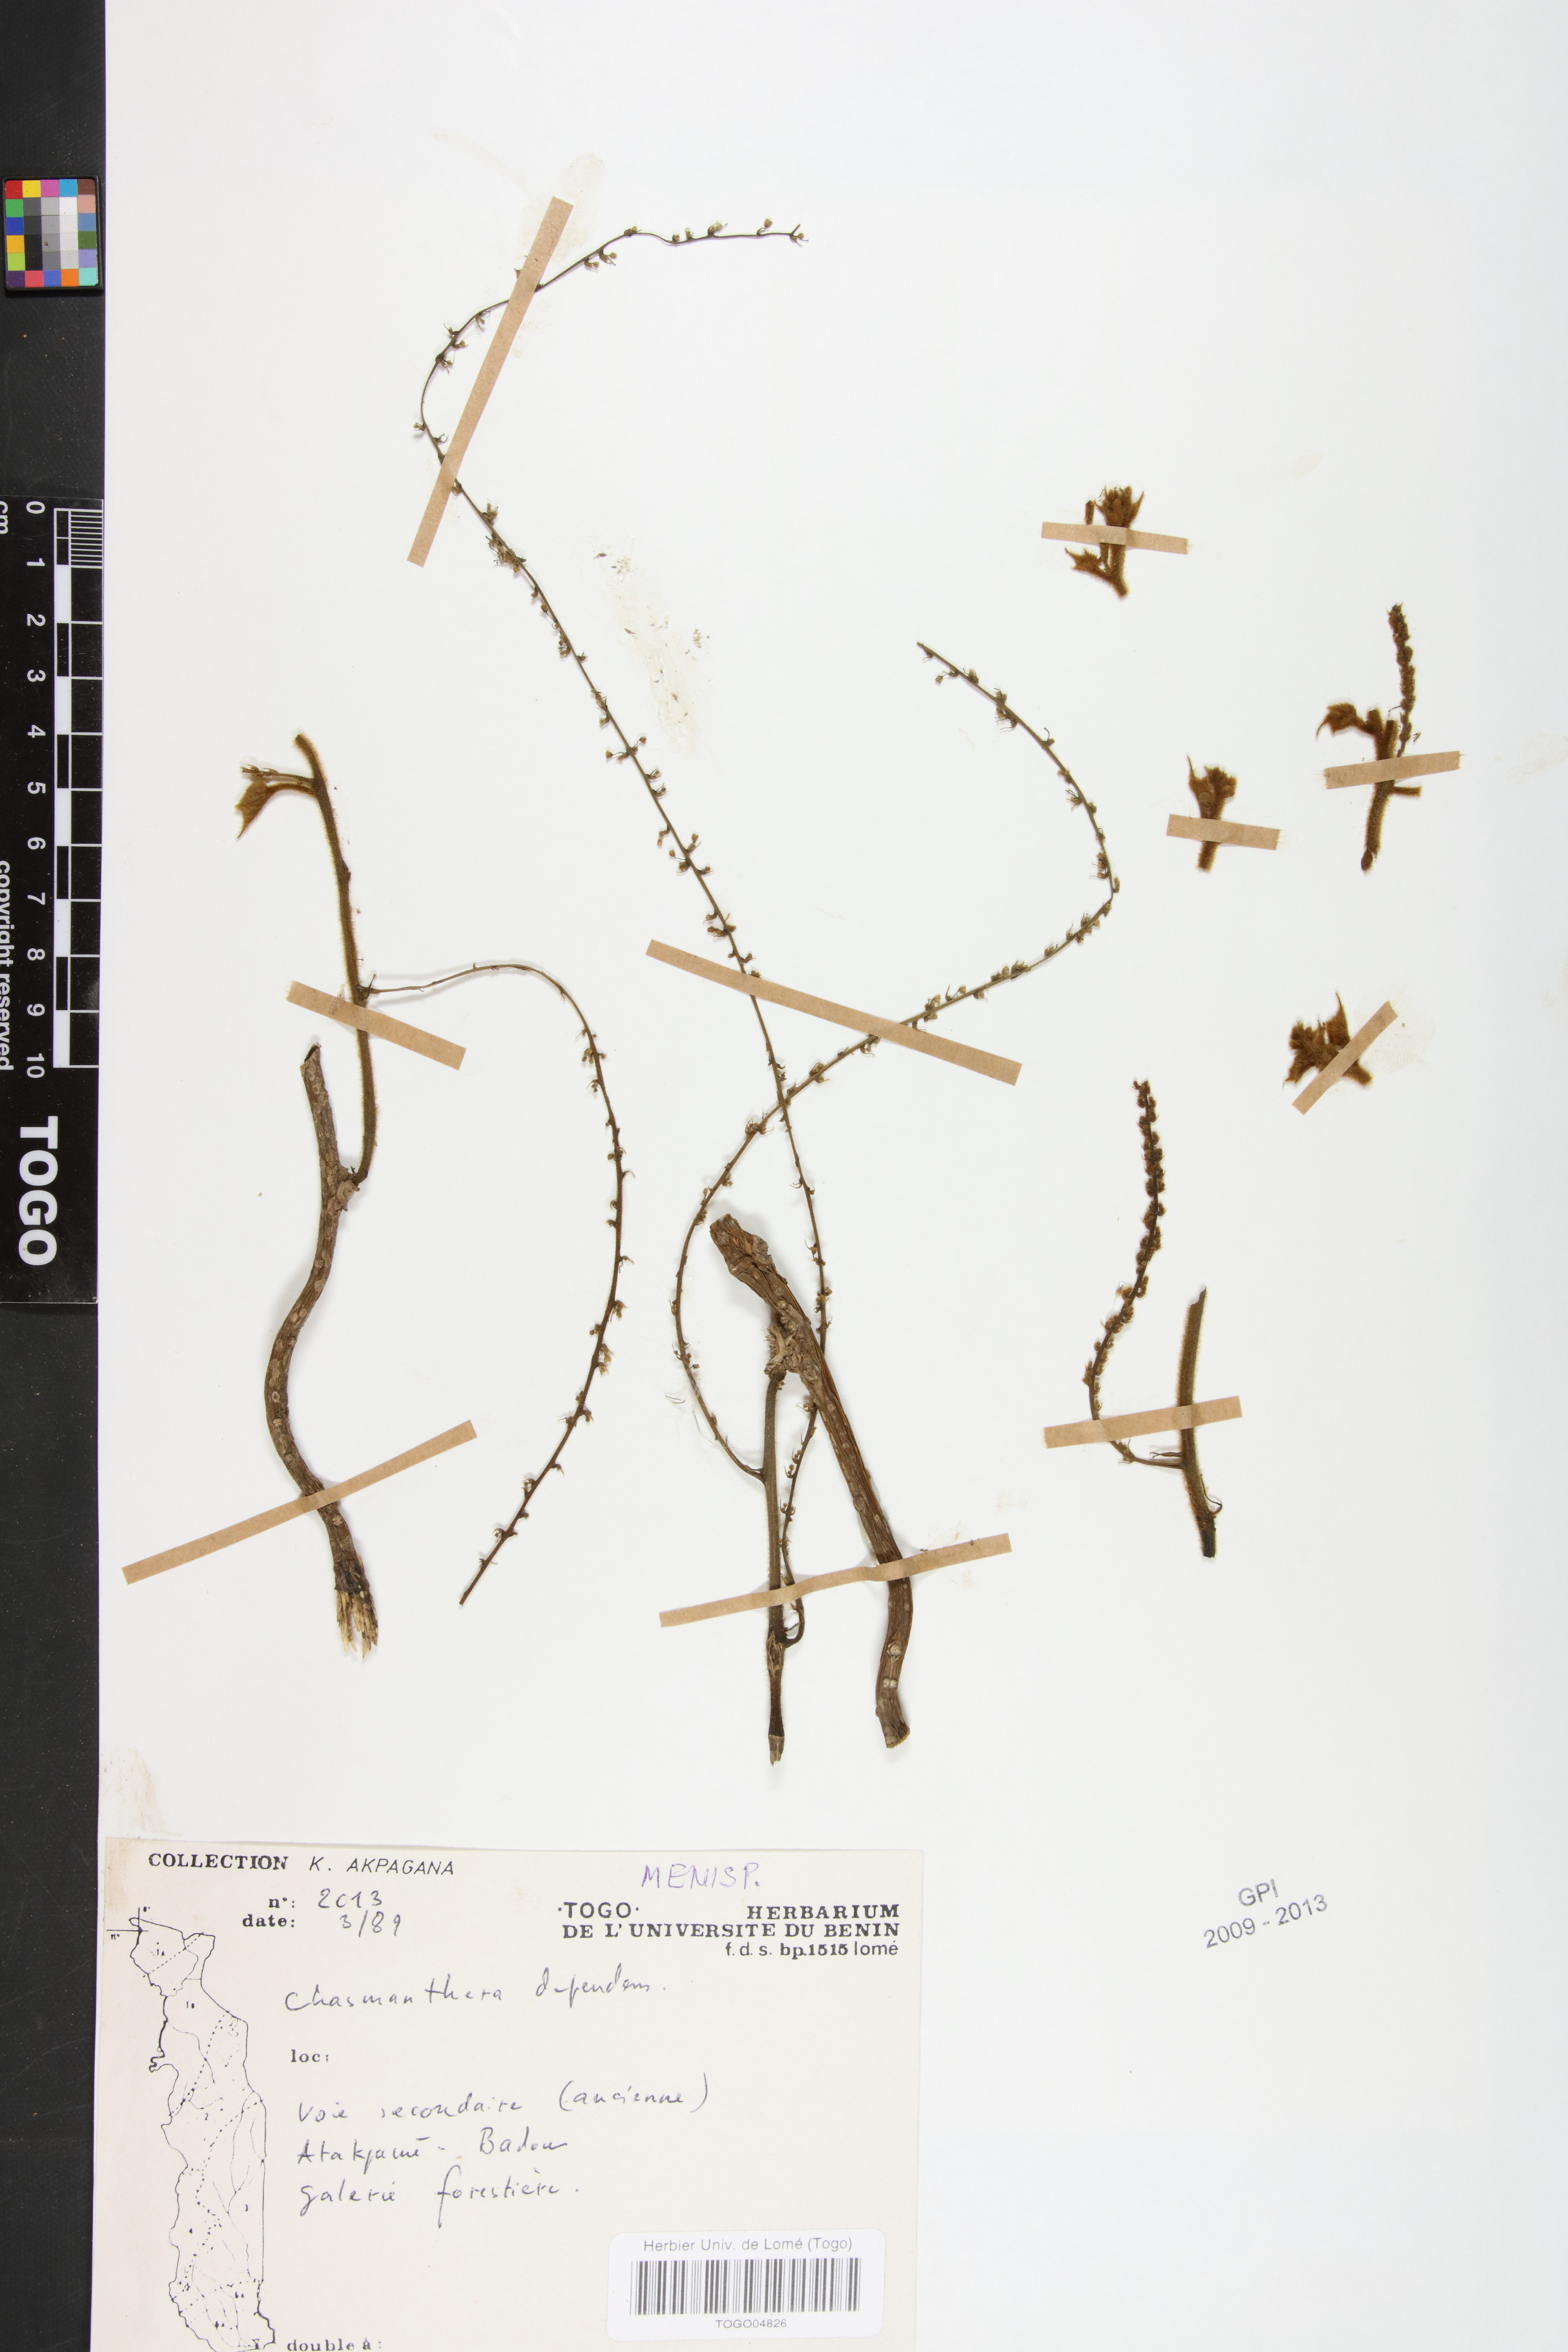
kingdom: Plantae
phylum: Tracheophyta
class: Liliopsida
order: Poales
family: Poaceae
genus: Chasmopodium
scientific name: Chasmopodium afzelii
